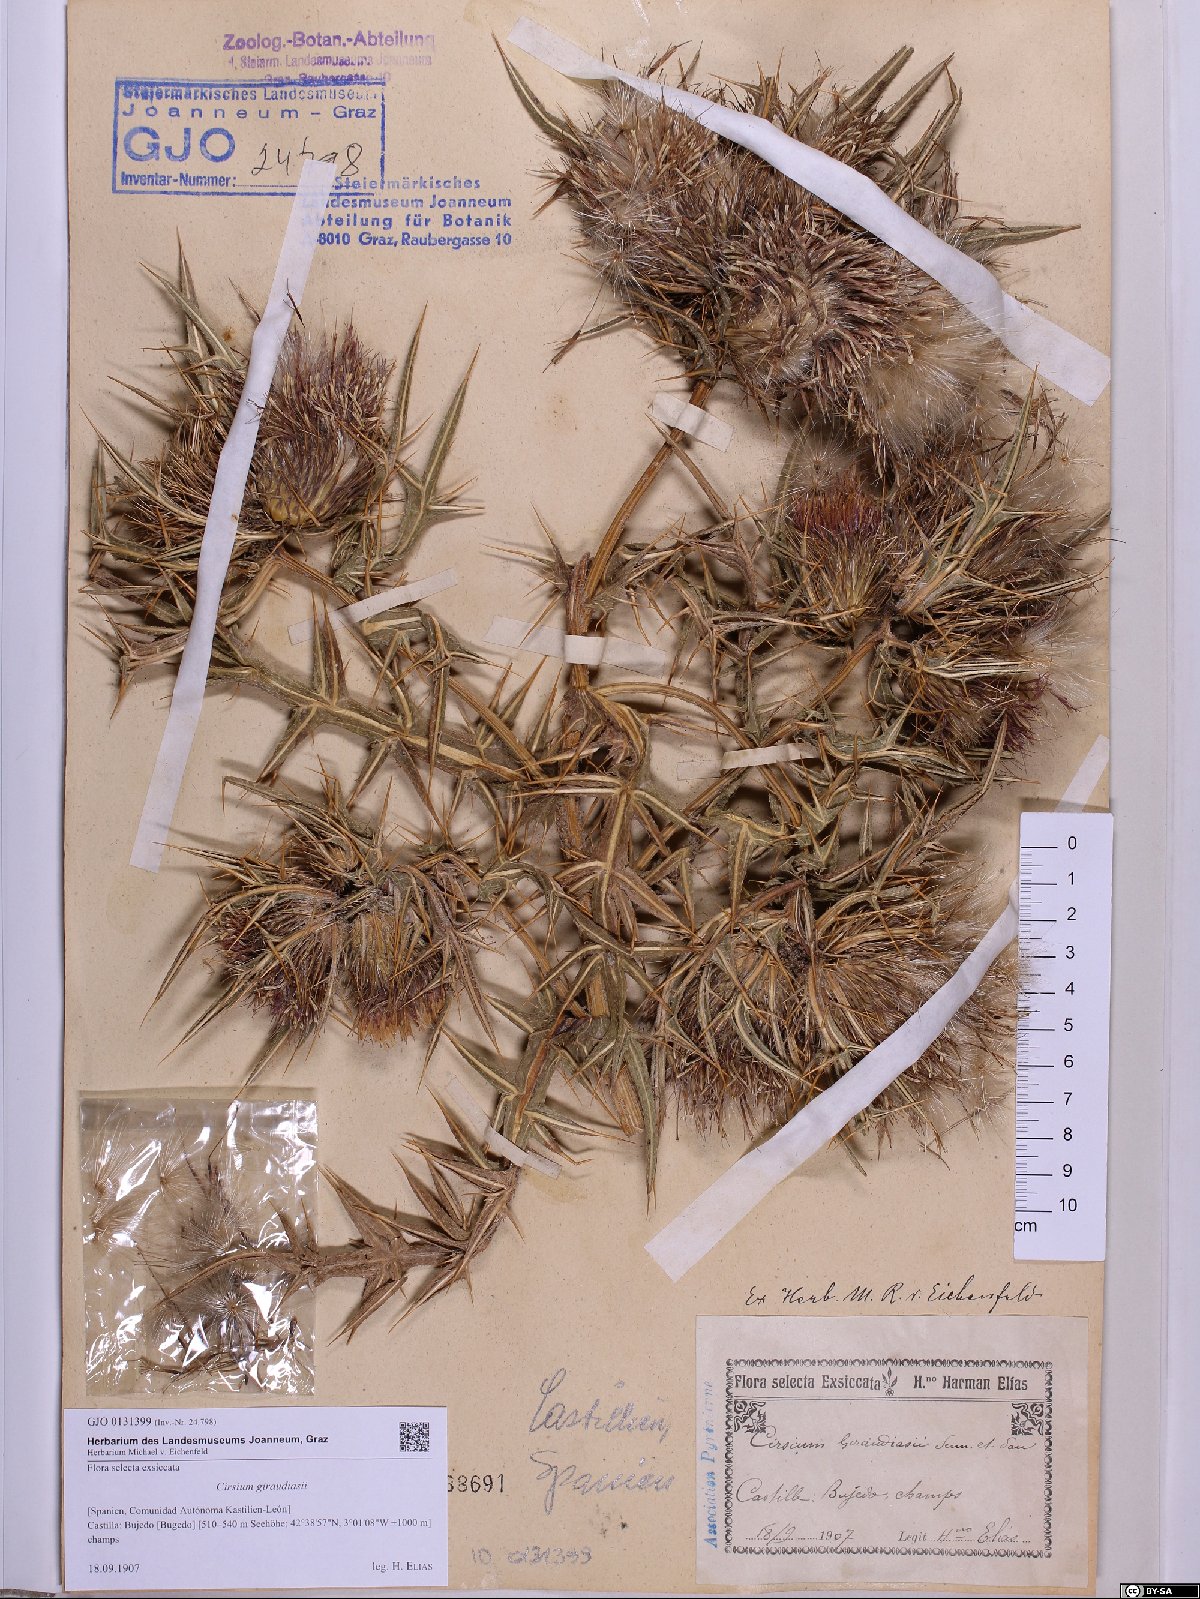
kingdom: Plantae
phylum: Tracheophyta
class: Magnoliopsida
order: Asterales
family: Asteraceae
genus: Lophiolepis
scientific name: Lophiolepis richteriana
